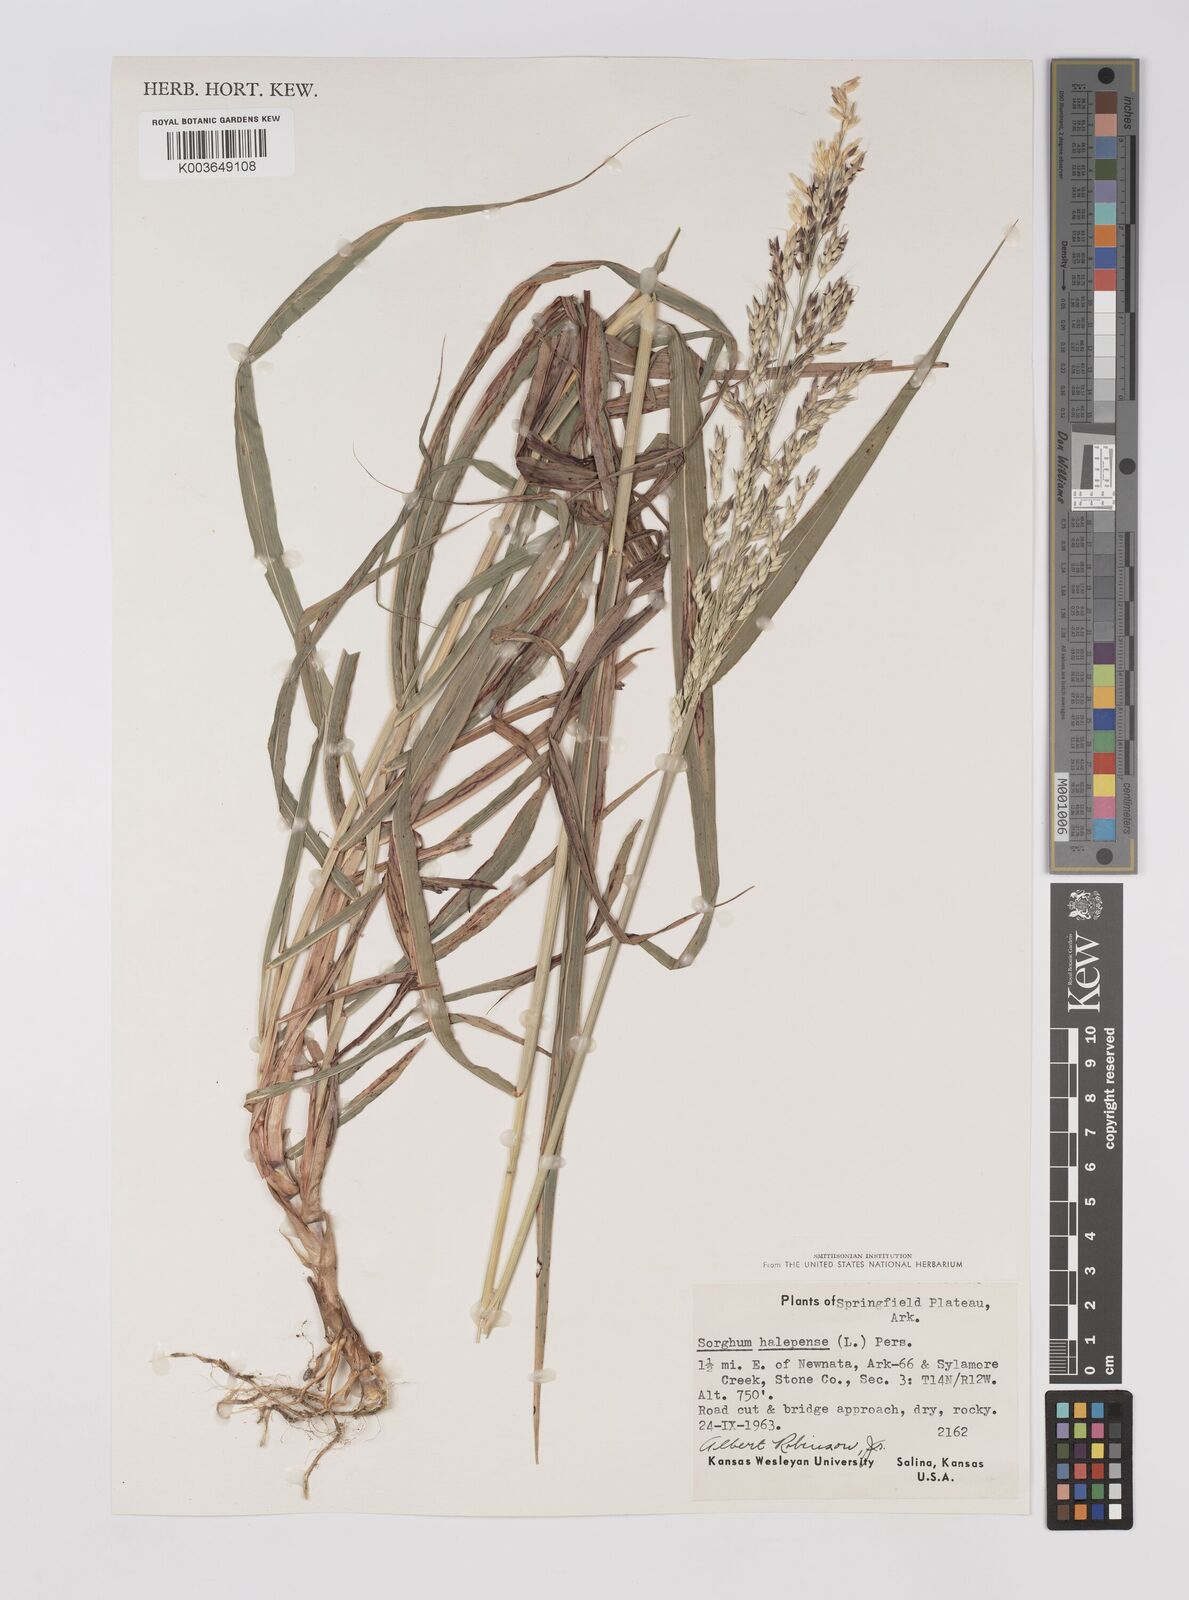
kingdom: Plantae
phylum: Tracheophyta
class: Liliopsida
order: Poales
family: Poaceae
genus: Sorghum
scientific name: Sorghum halepense
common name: Johnson-grass
